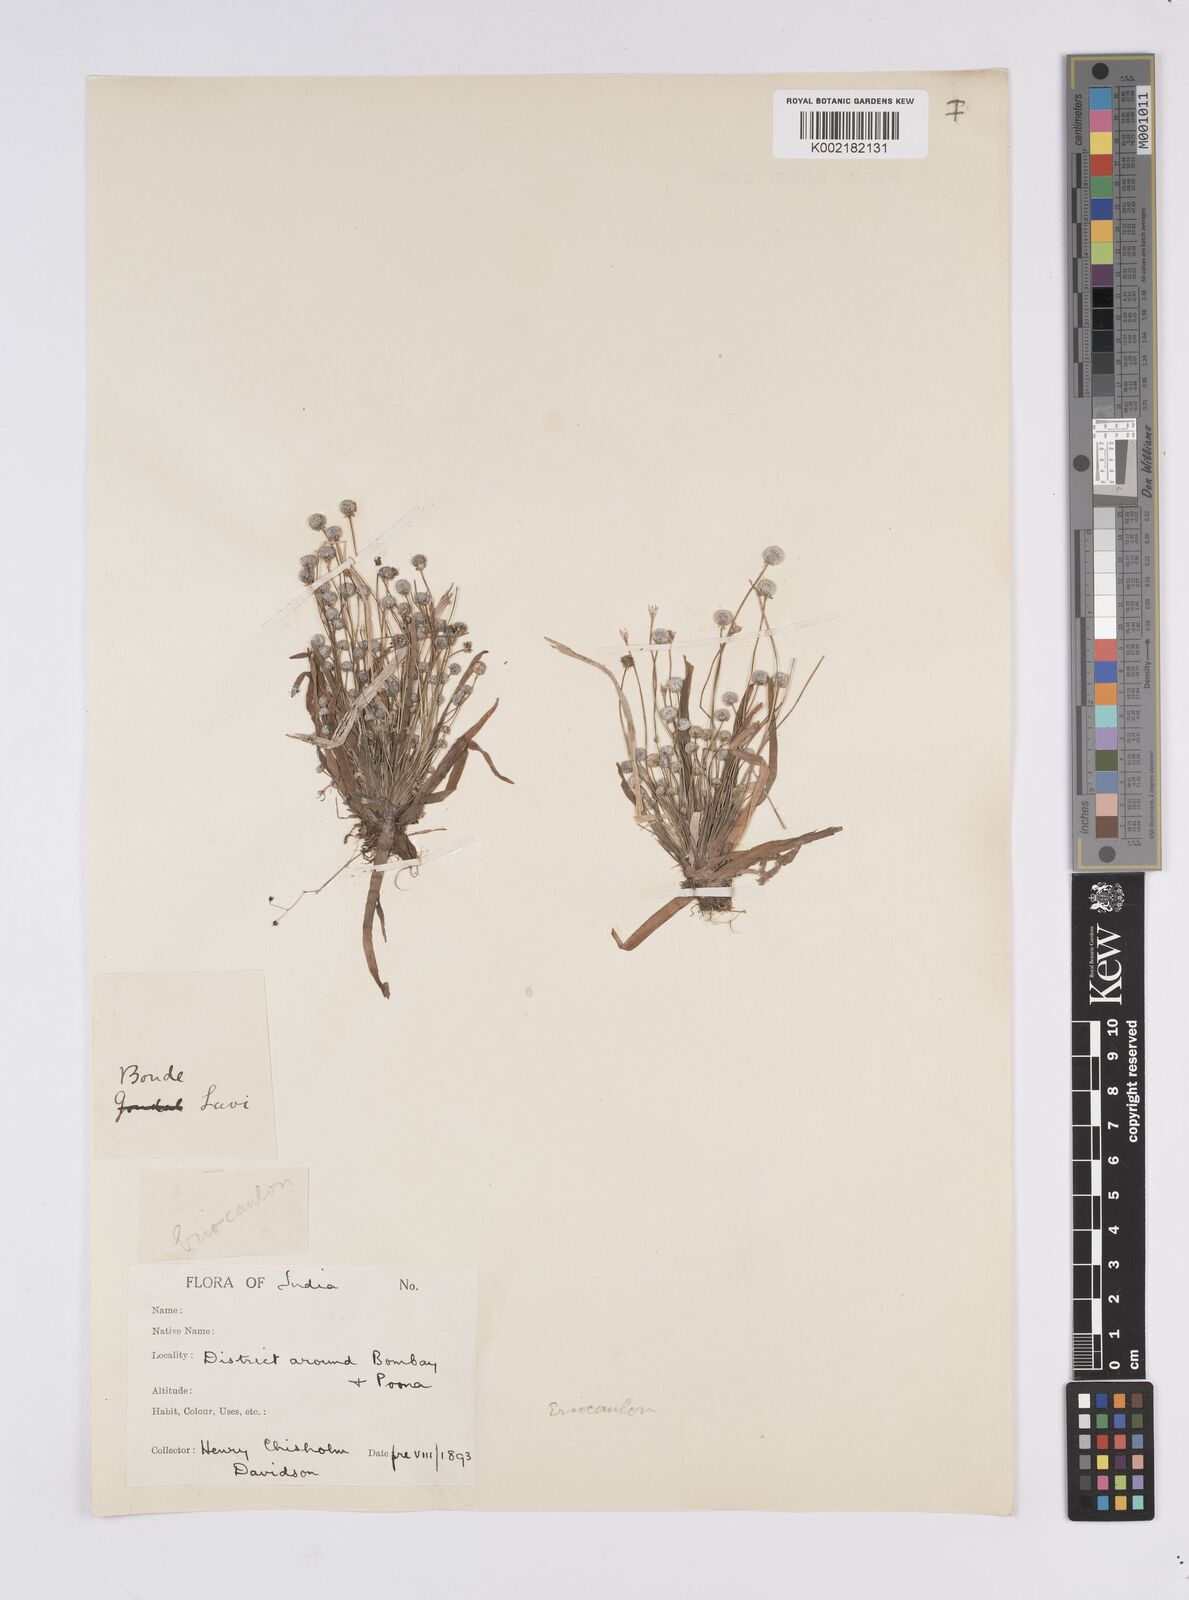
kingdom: Plantae
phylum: Tracheophyta
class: Liliopsida
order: Poales
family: Eriocaulaceae
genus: Eriocaulon
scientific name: Eriocaulon
